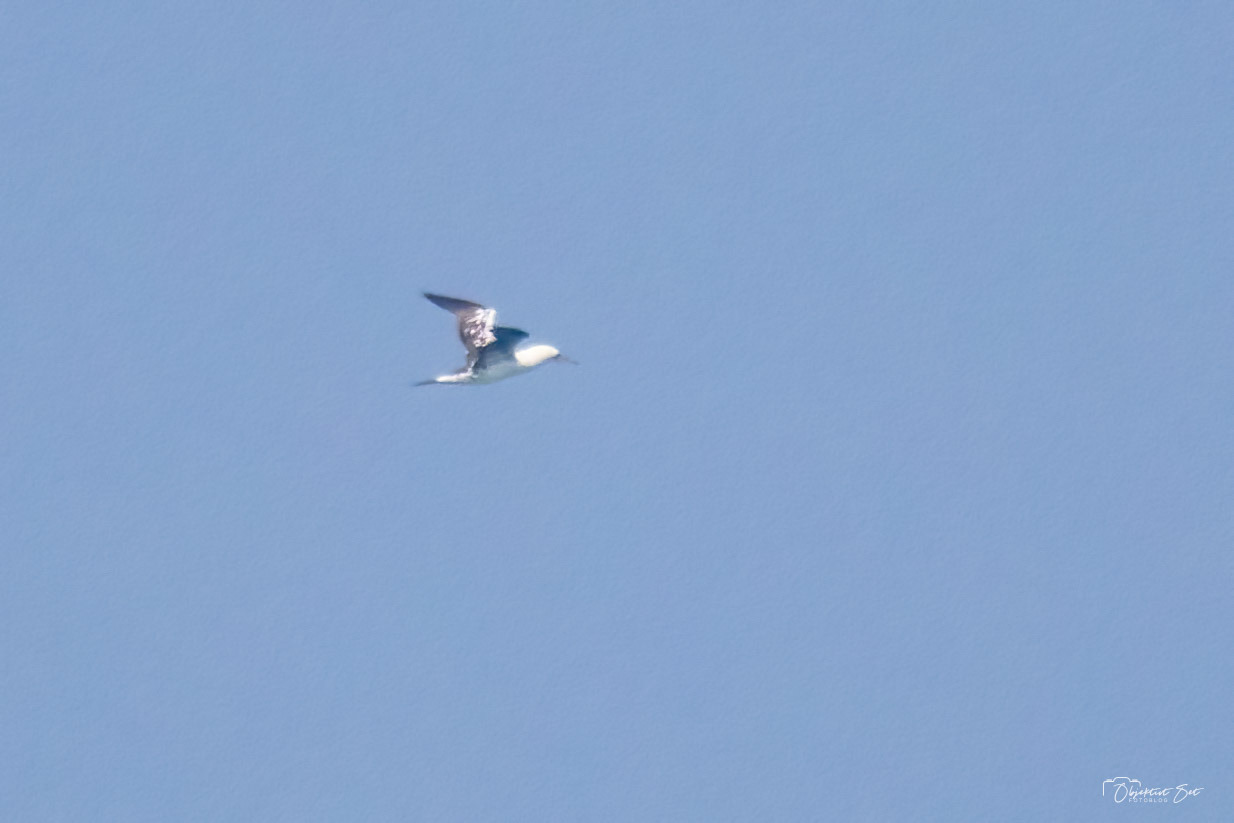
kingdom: Animalia
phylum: Chordata
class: Aves
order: Suliformes
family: Sulidae
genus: Morus
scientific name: Morus bassanus
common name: Sule
